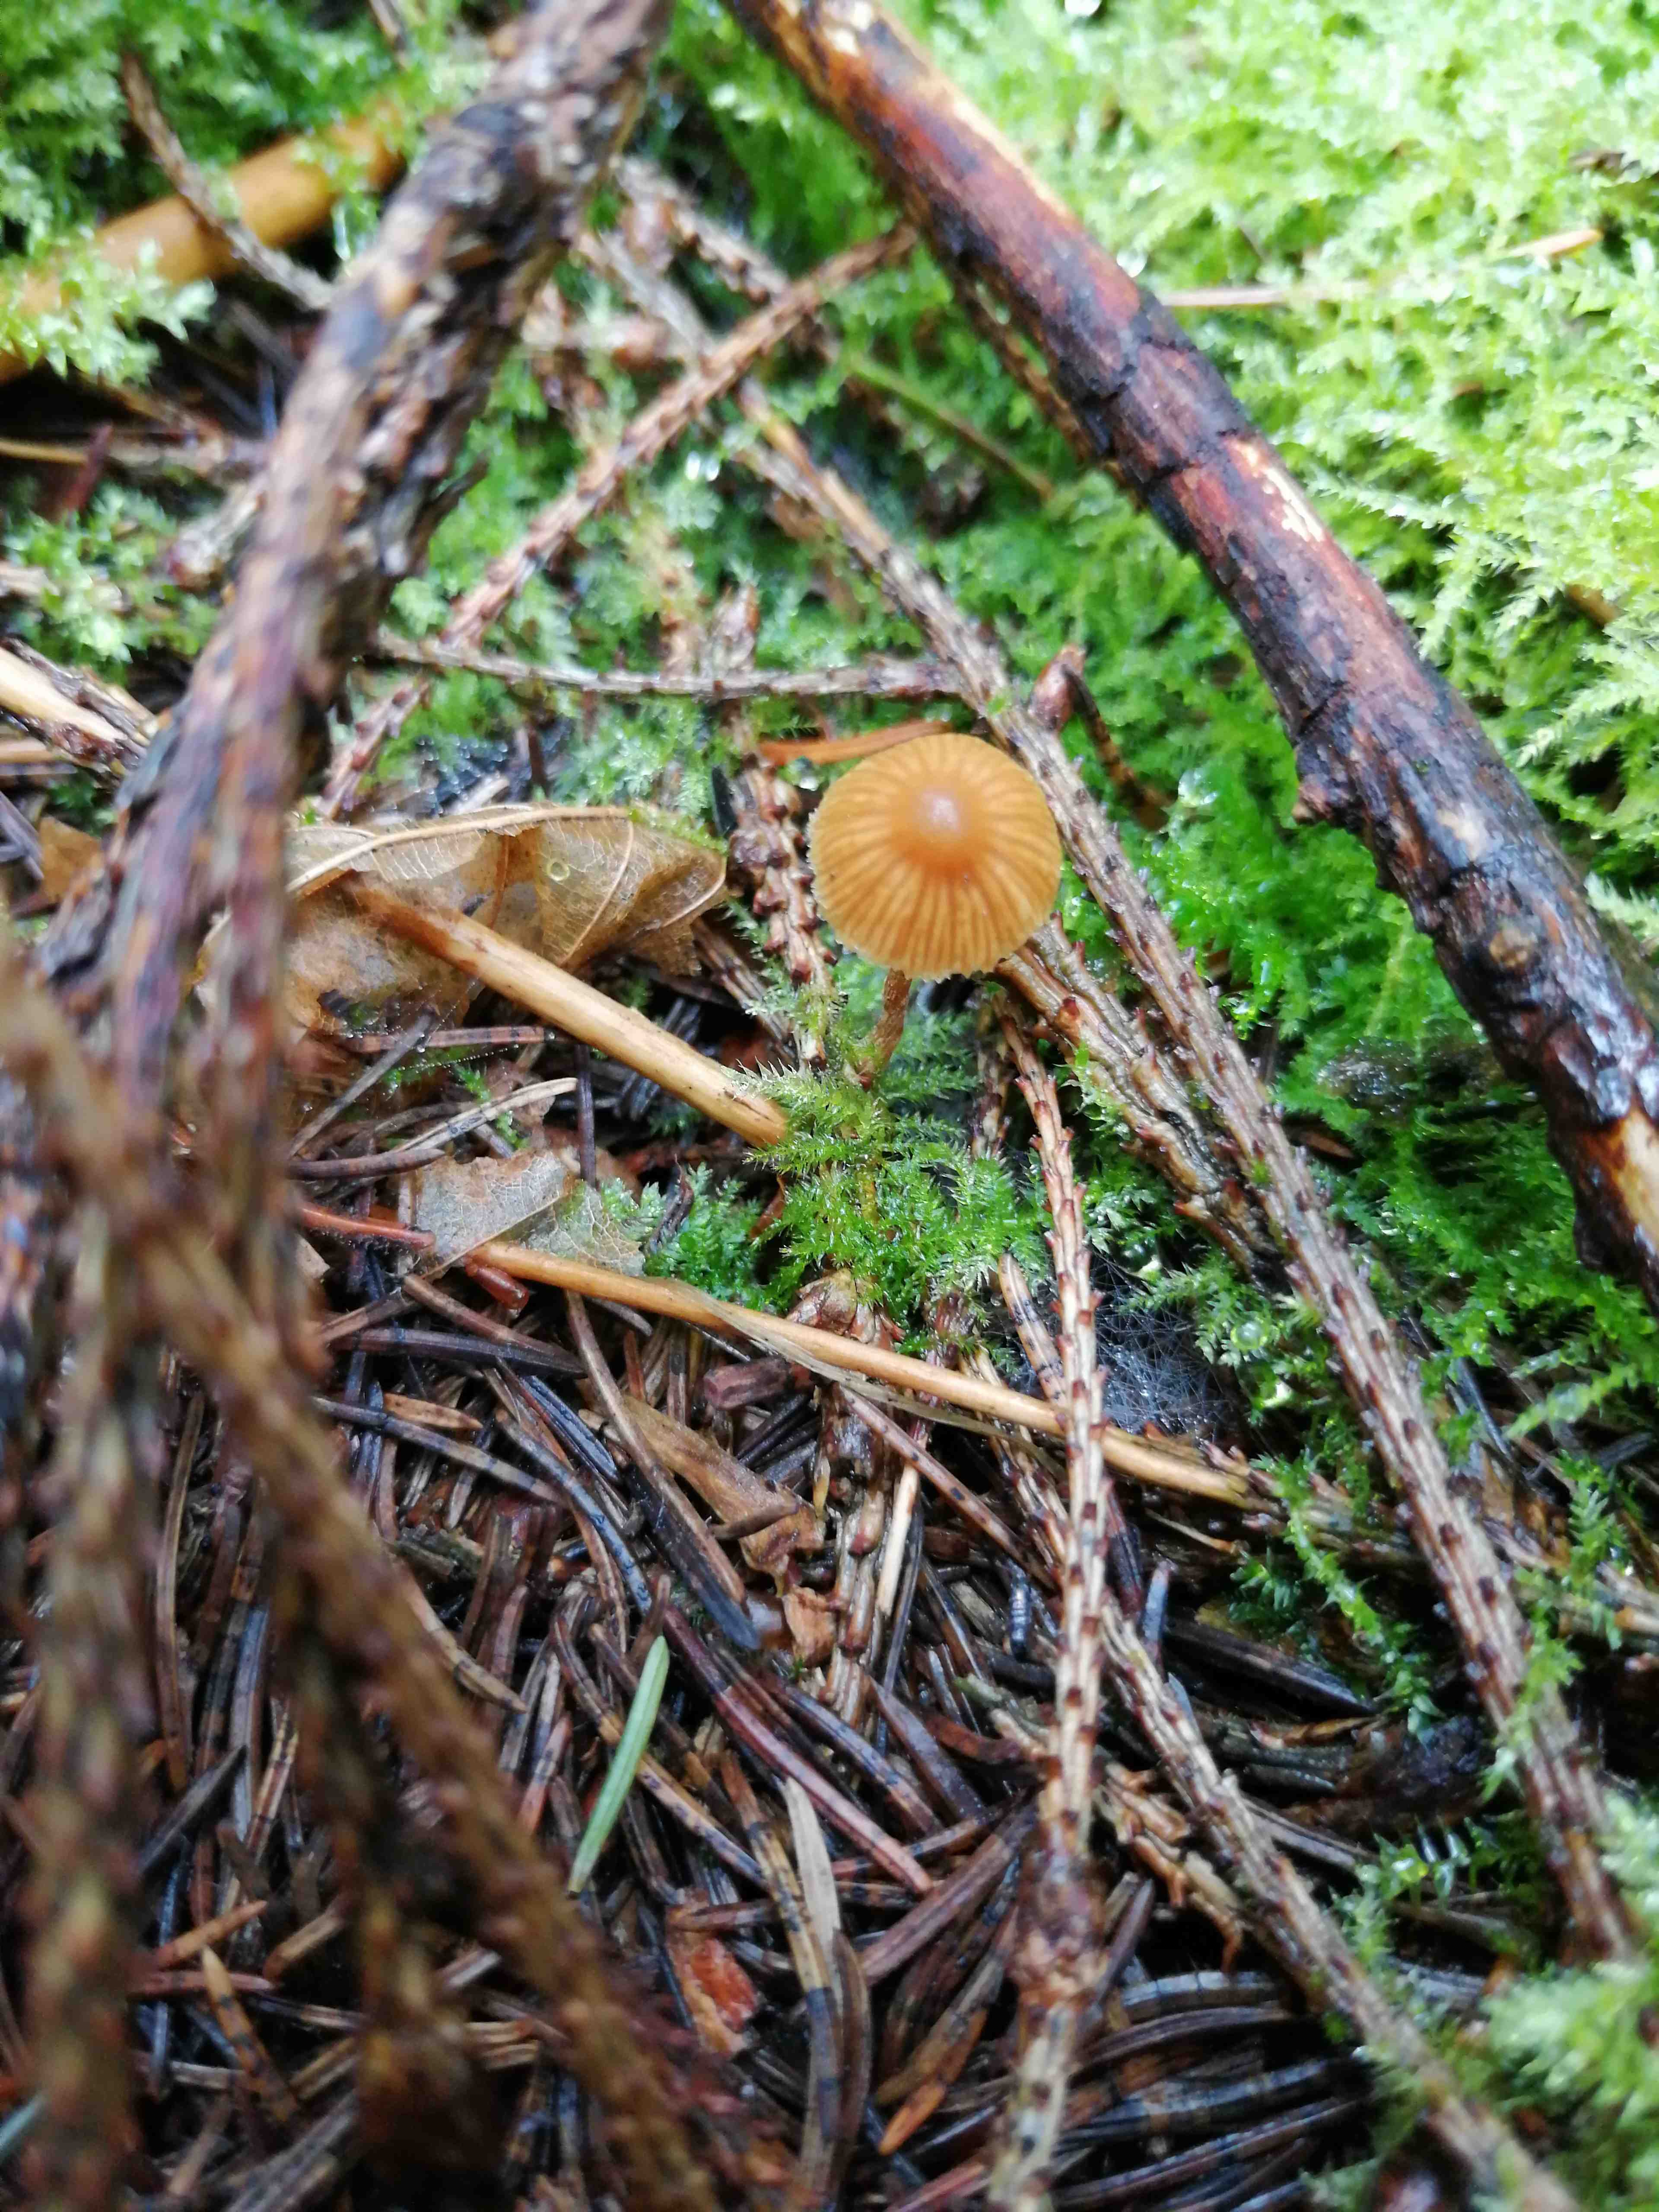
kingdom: Fungi
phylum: Basidiomycota
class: Agaricomycetes
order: Agaricales
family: Hymenogastraceae
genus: Galerina
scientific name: Galerina
